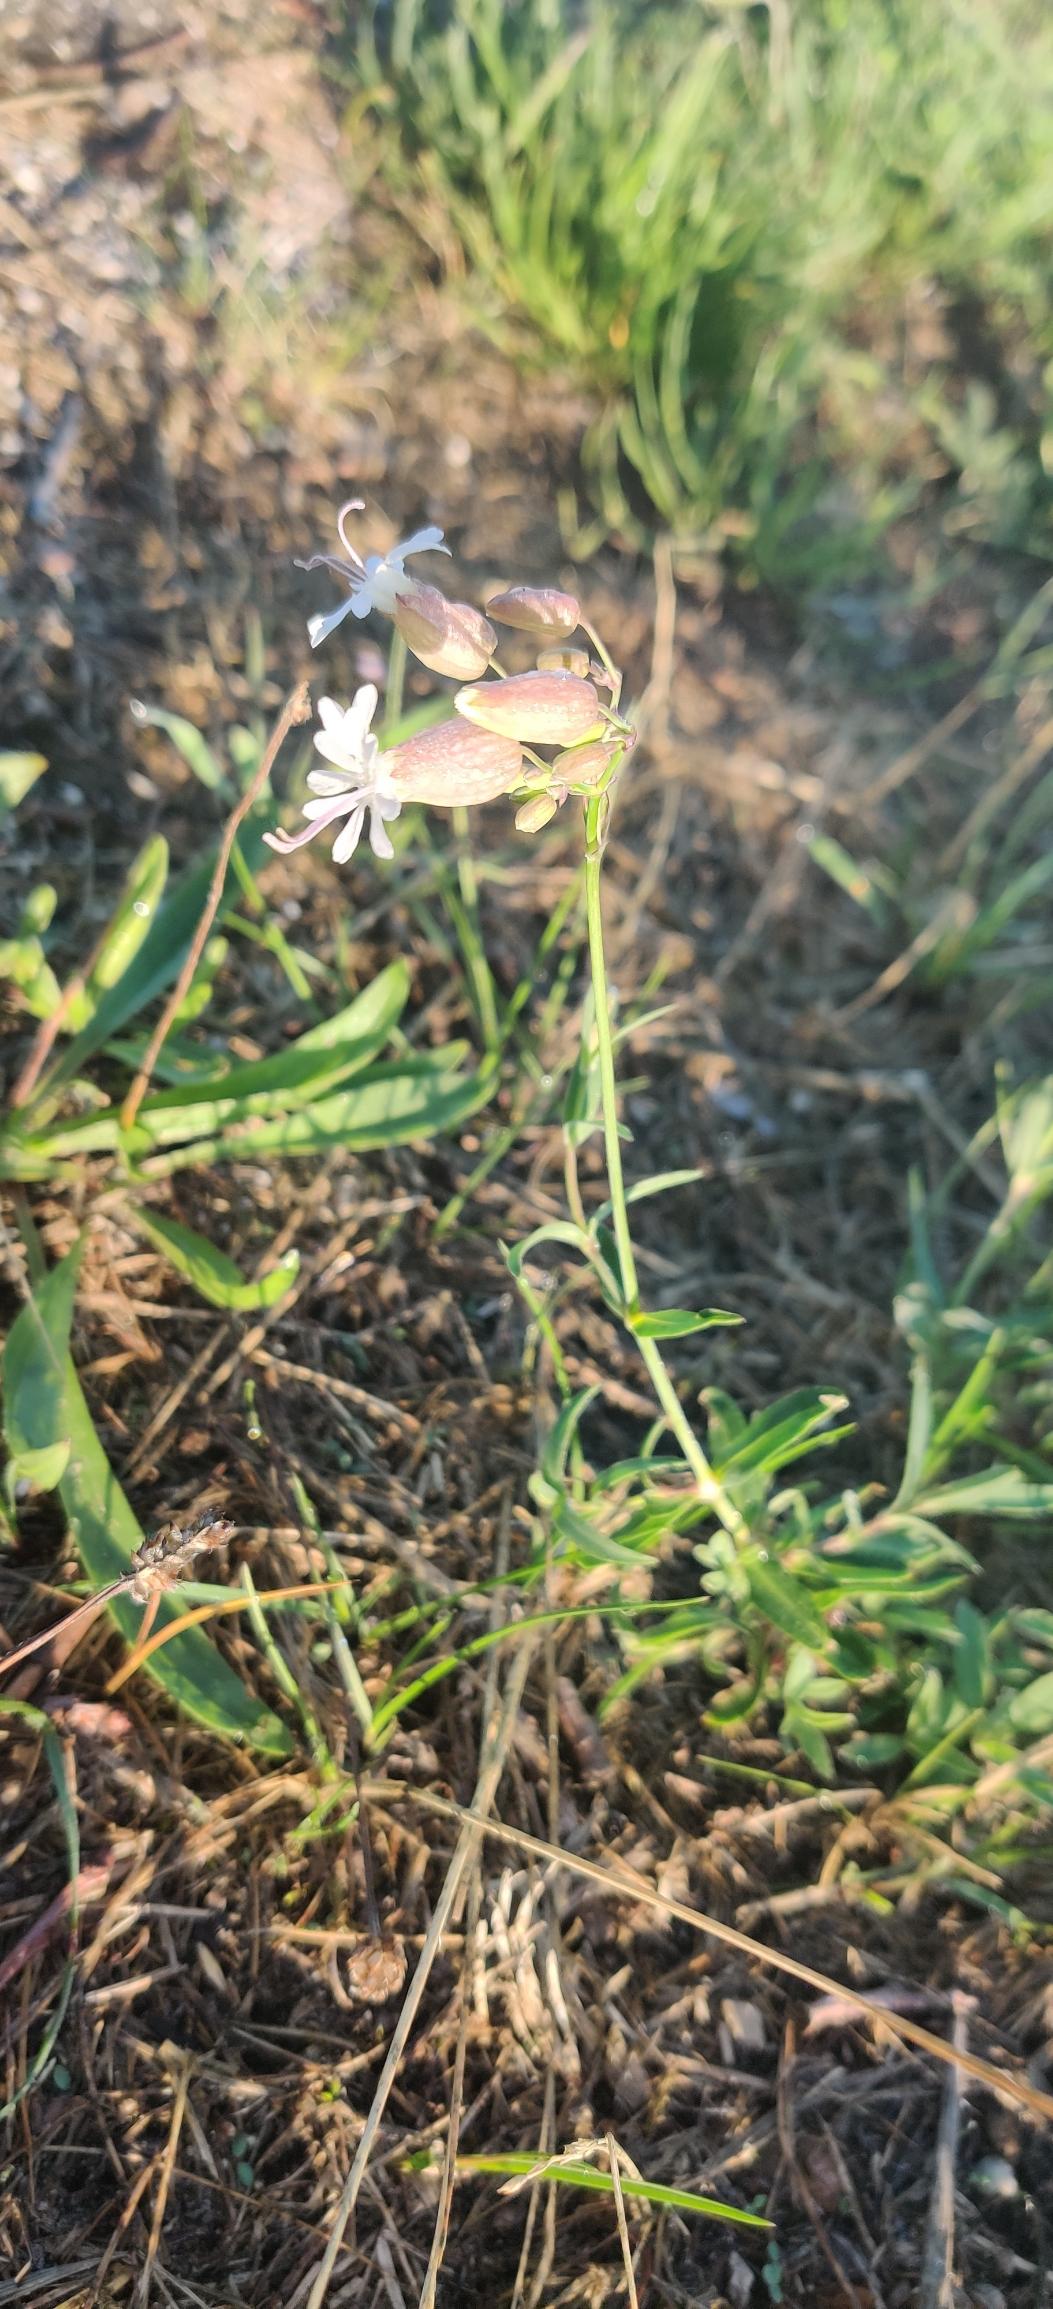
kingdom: Plantae
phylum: Tracheophyta
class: Magnoliopsida
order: Caryophyllales
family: Caryophyllaceae
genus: Silene
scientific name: Silene vulgaris
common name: Blæresmælde
